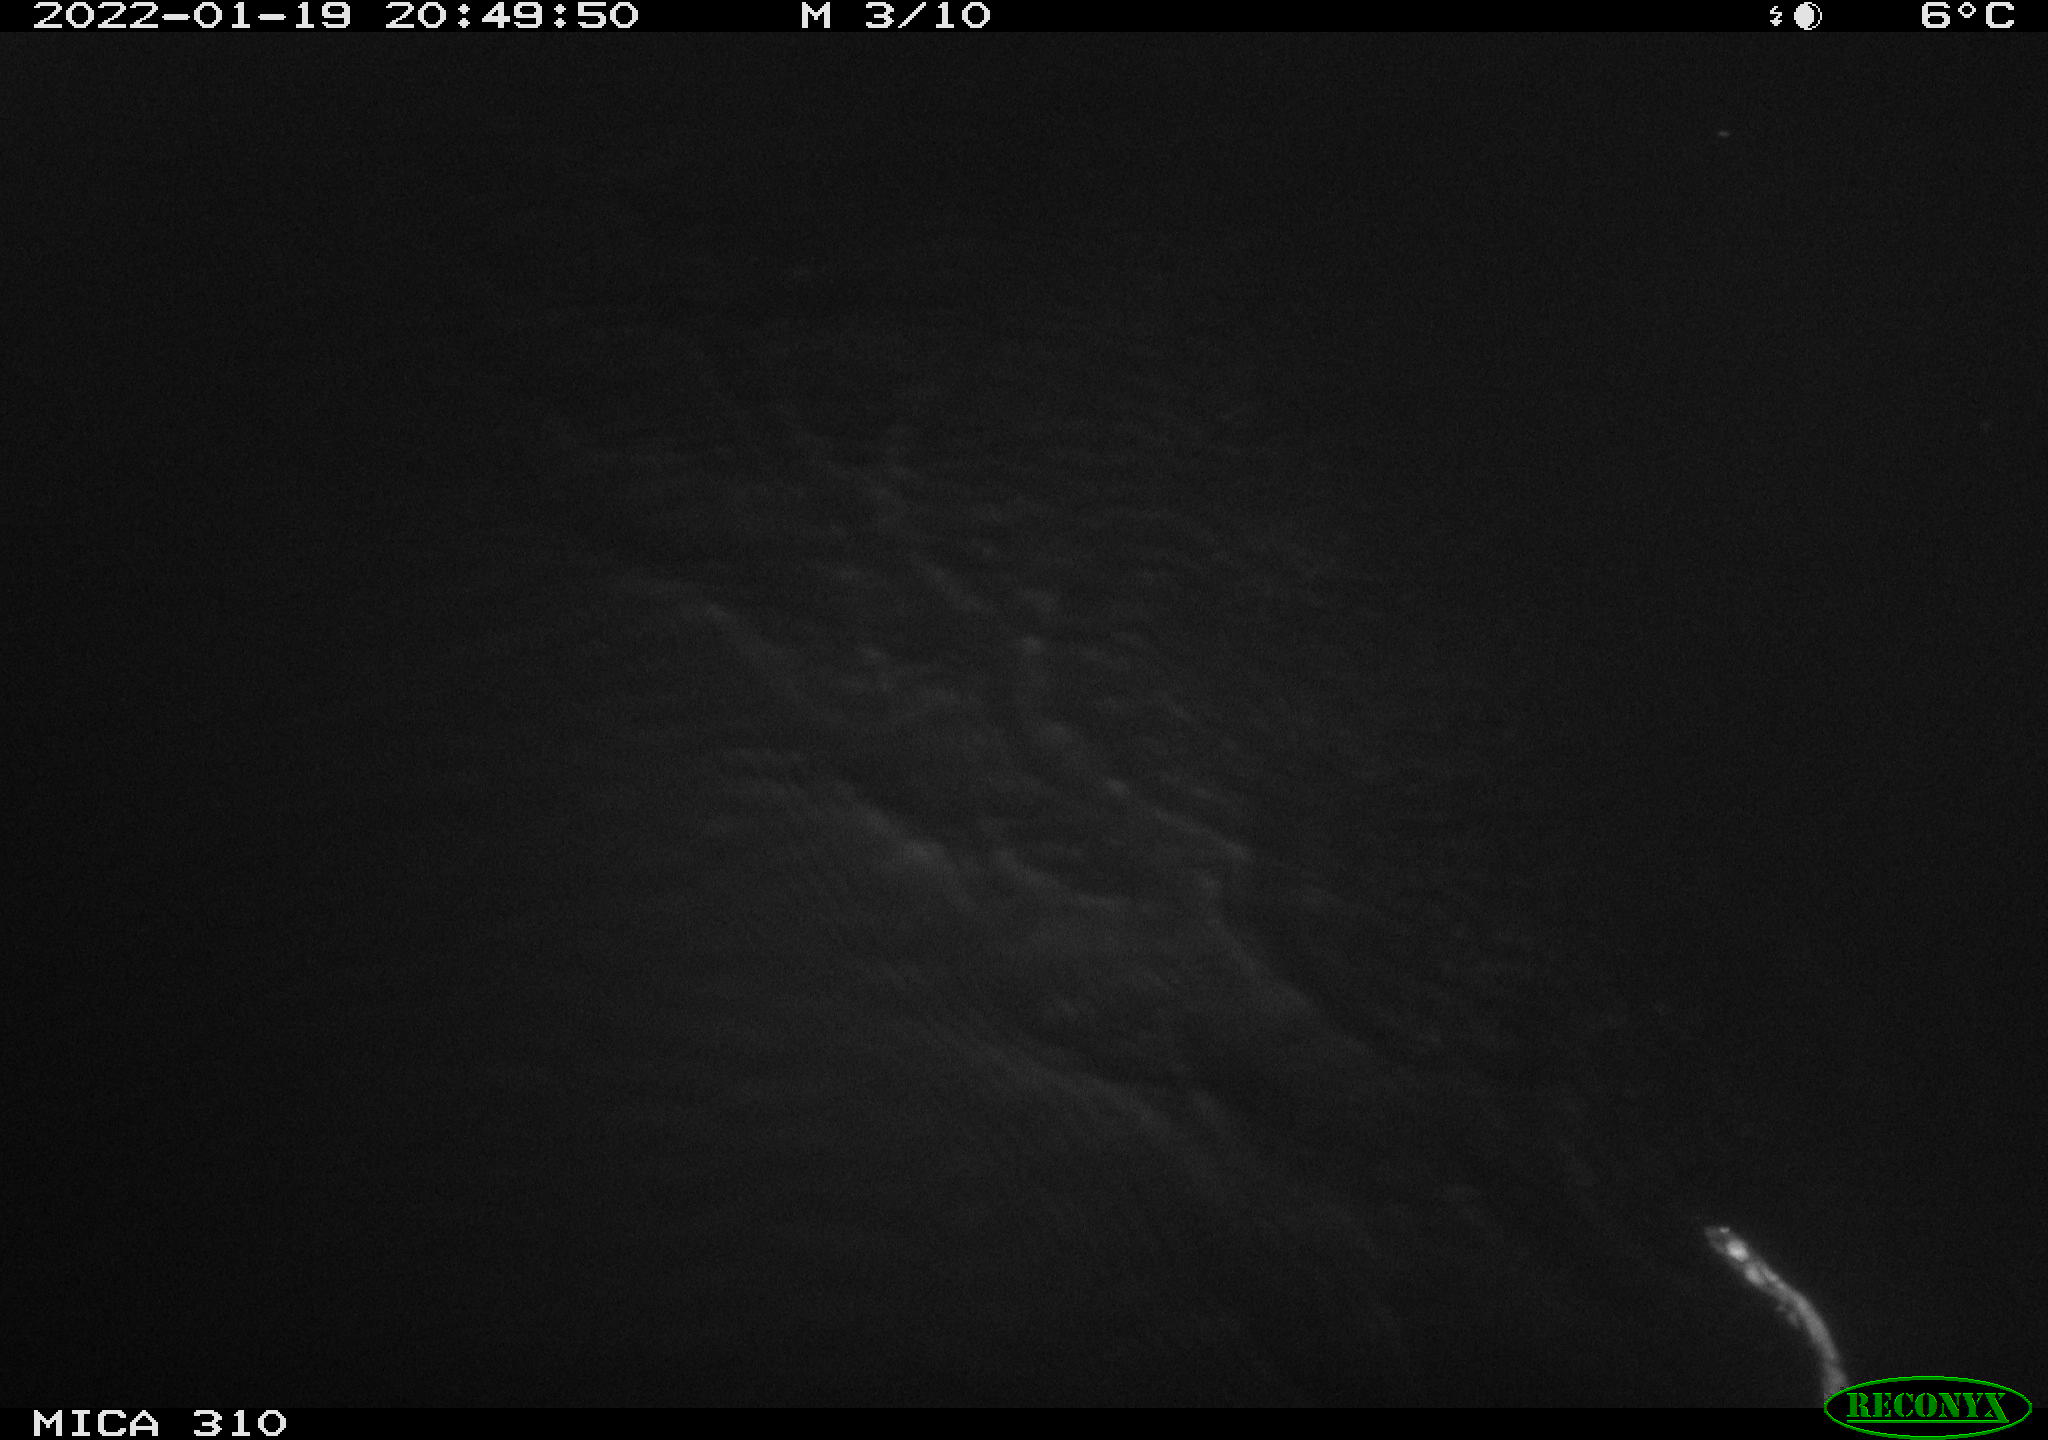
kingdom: Animalia
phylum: Chordata
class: Mammalia
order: Rodentia
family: Cricetidae
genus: Ondatra
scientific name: Ondatra zibethicus
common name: Muskrat
